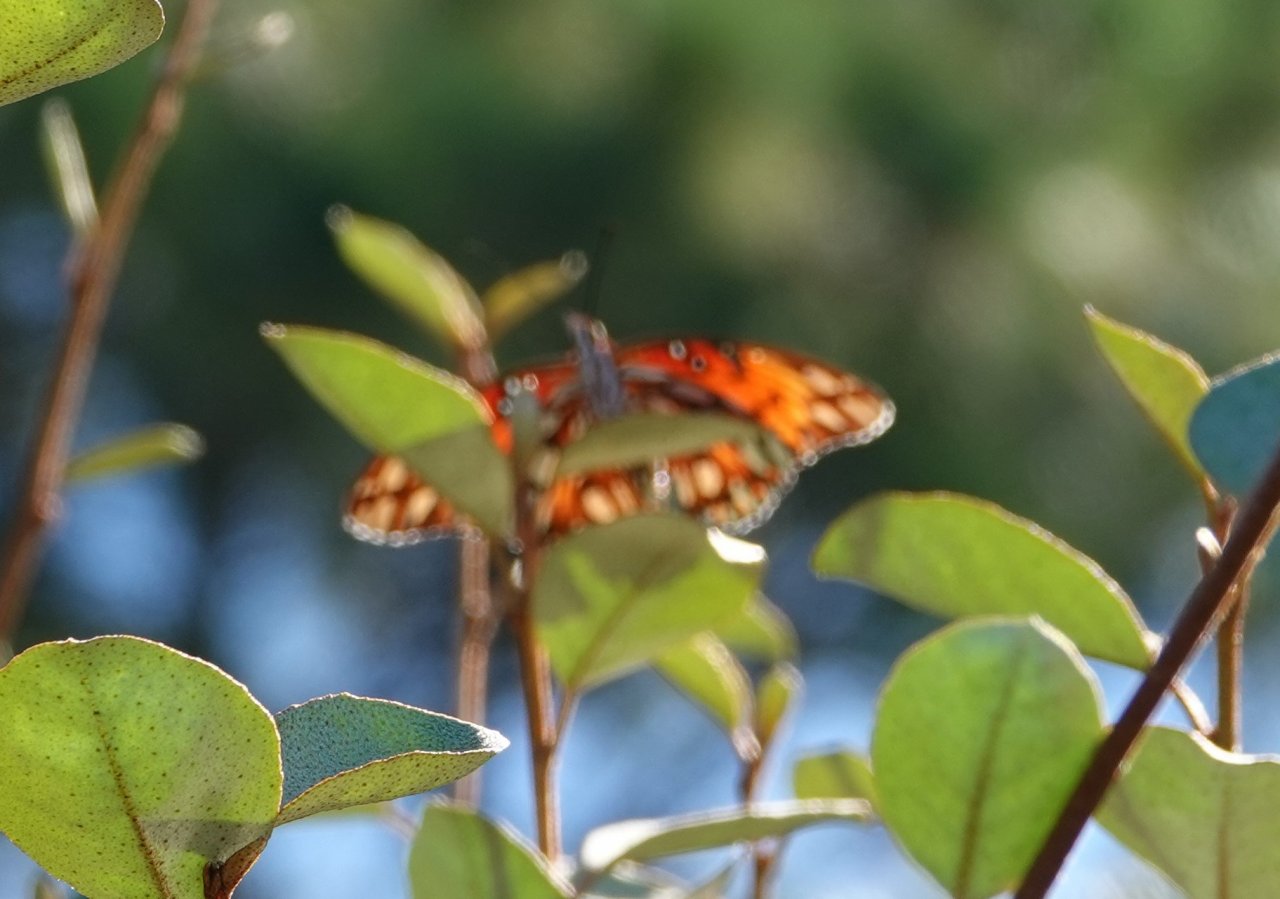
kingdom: Animalia
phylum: Arthropoda
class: Insecta
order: Lepidoptera
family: Nymphalidae
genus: Dione
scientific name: Dione vanillae
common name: Gulf Fritillary
